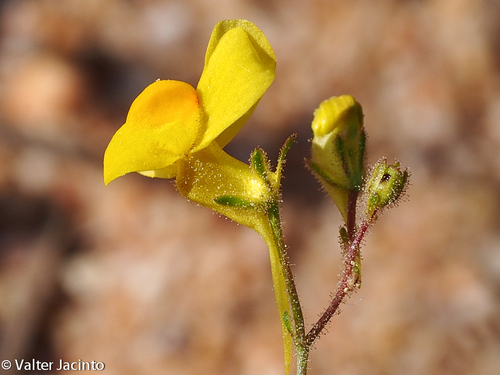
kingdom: Plantae
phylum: Tracheophyta
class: Magnoliopsida
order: Lamiales
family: Plantaginaceae
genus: Linaria
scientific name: Linaria oblongifolia
